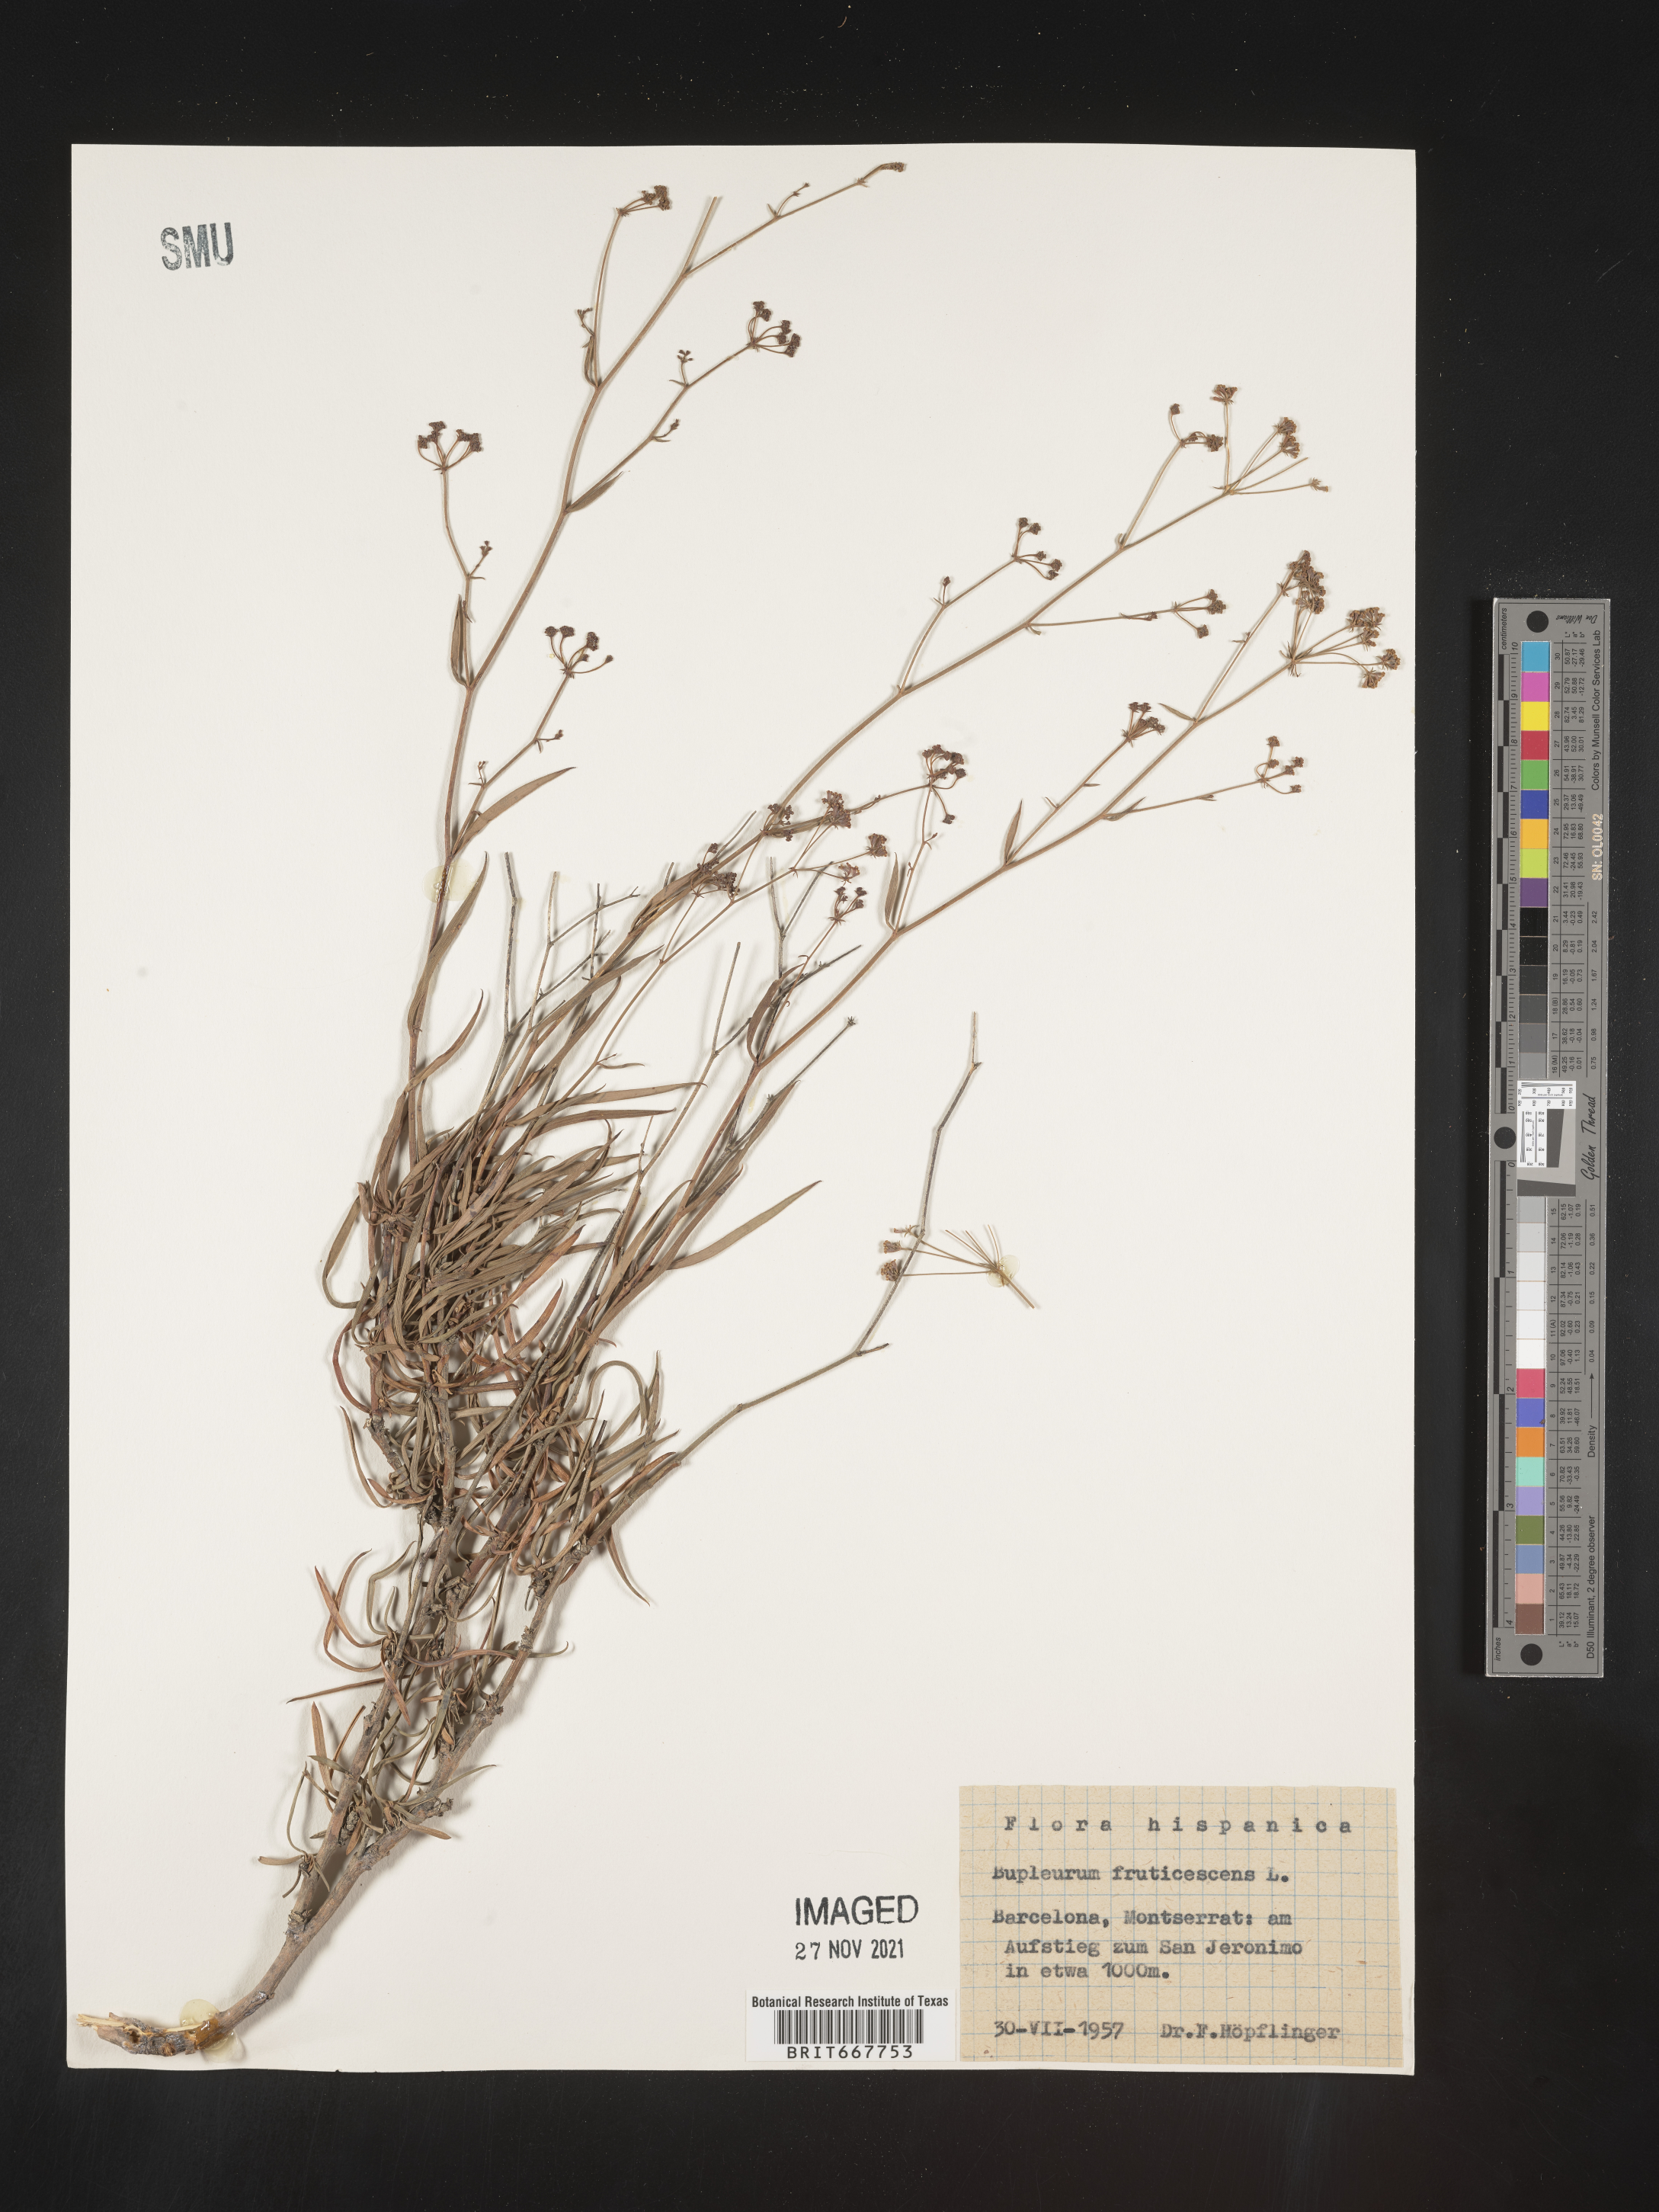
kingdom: Plantae
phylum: Tracheophyta
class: Magnoliopsida
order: Apiales
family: Apiaceae
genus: Bupleurum
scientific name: Bupleurum
